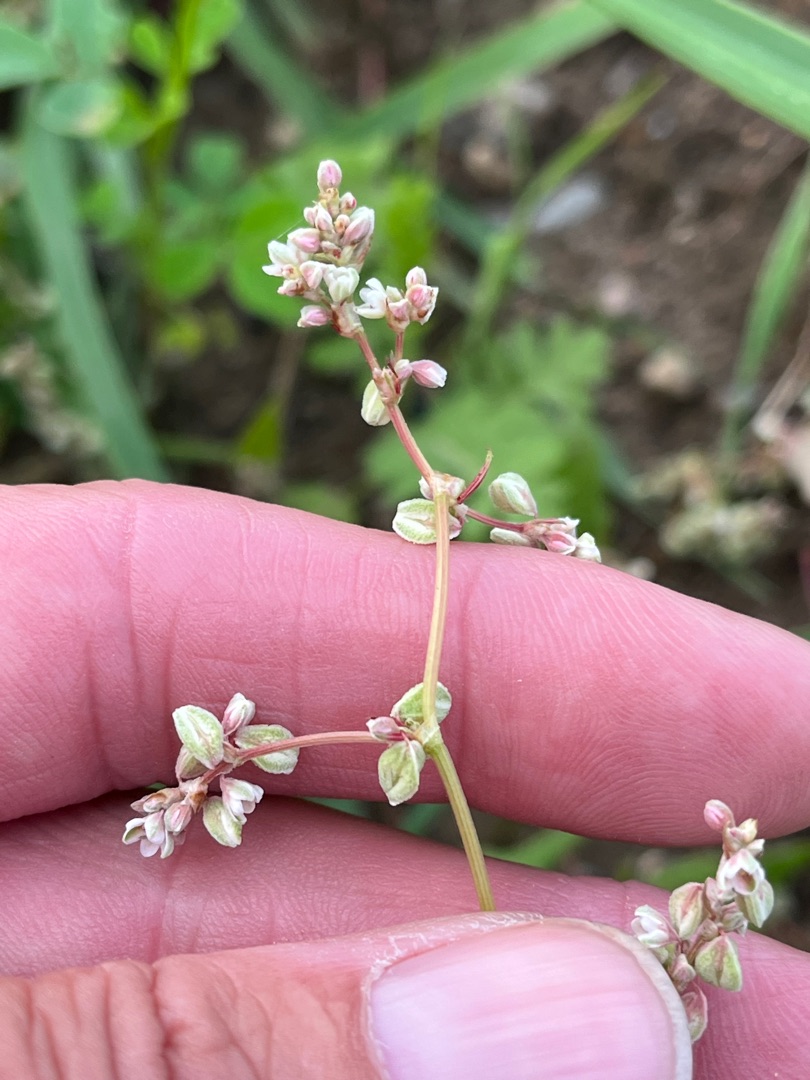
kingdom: Plantae
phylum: Tracheophyta
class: Magnoliopsida
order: Caryophyllales
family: Polygonaceae
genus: Fallopia
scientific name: Fallopia convolvulus
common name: Snerle-pileurt
